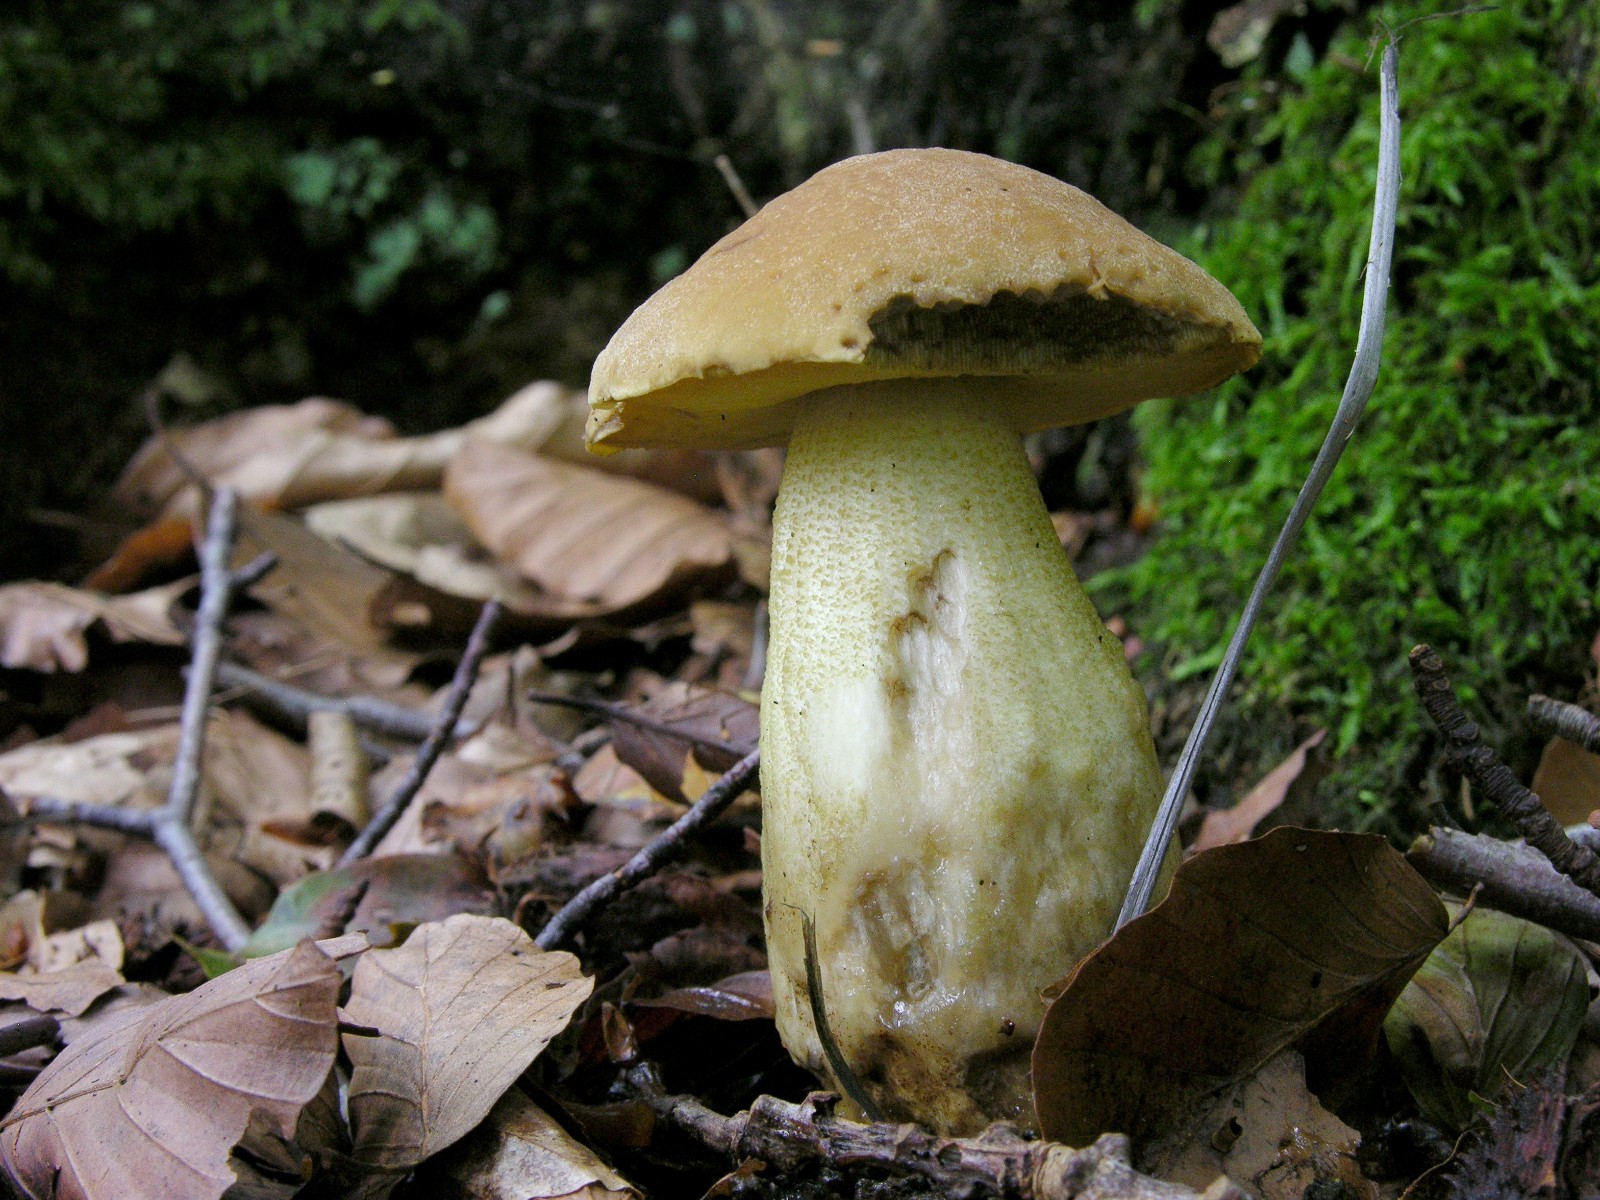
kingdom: Fungi
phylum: Basidiomycota
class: Agaricomycetes
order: Boletales
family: Boletaceae
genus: Leccinellum
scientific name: Leccinellum crocipodium
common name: gul skælrørhat
